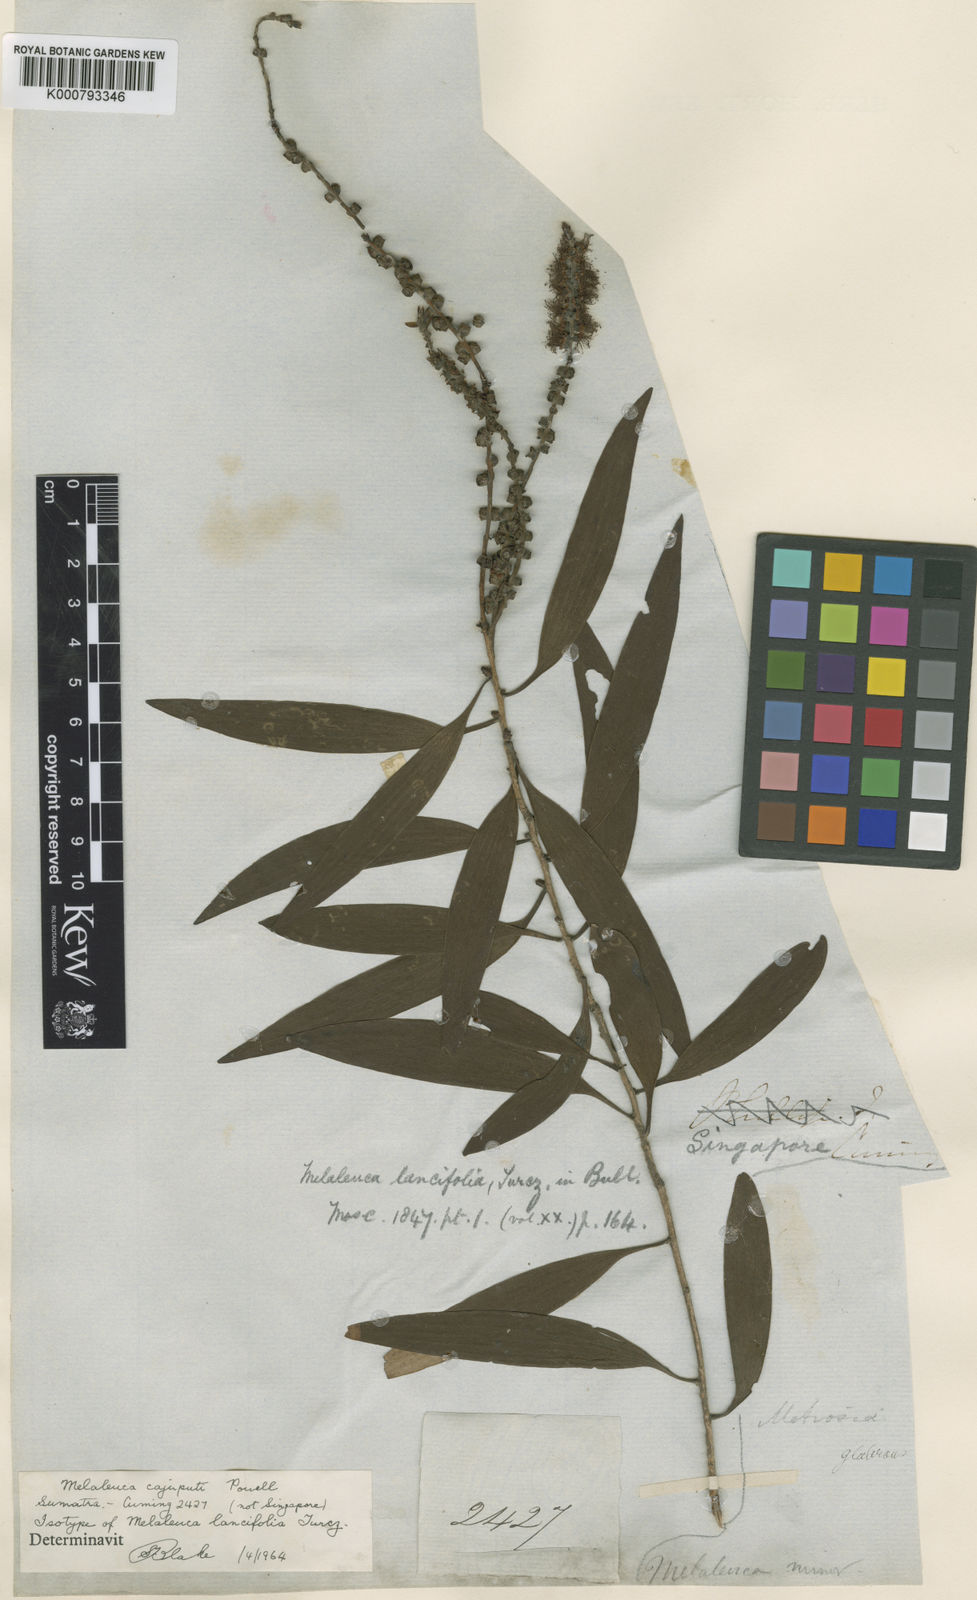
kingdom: Plantae
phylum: Tracheophyta
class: Magnoliopsida
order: Myrtales
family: Myrtaceae
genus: Melaleuca
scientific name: Melaleuca cajuputi
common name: Cajuput
